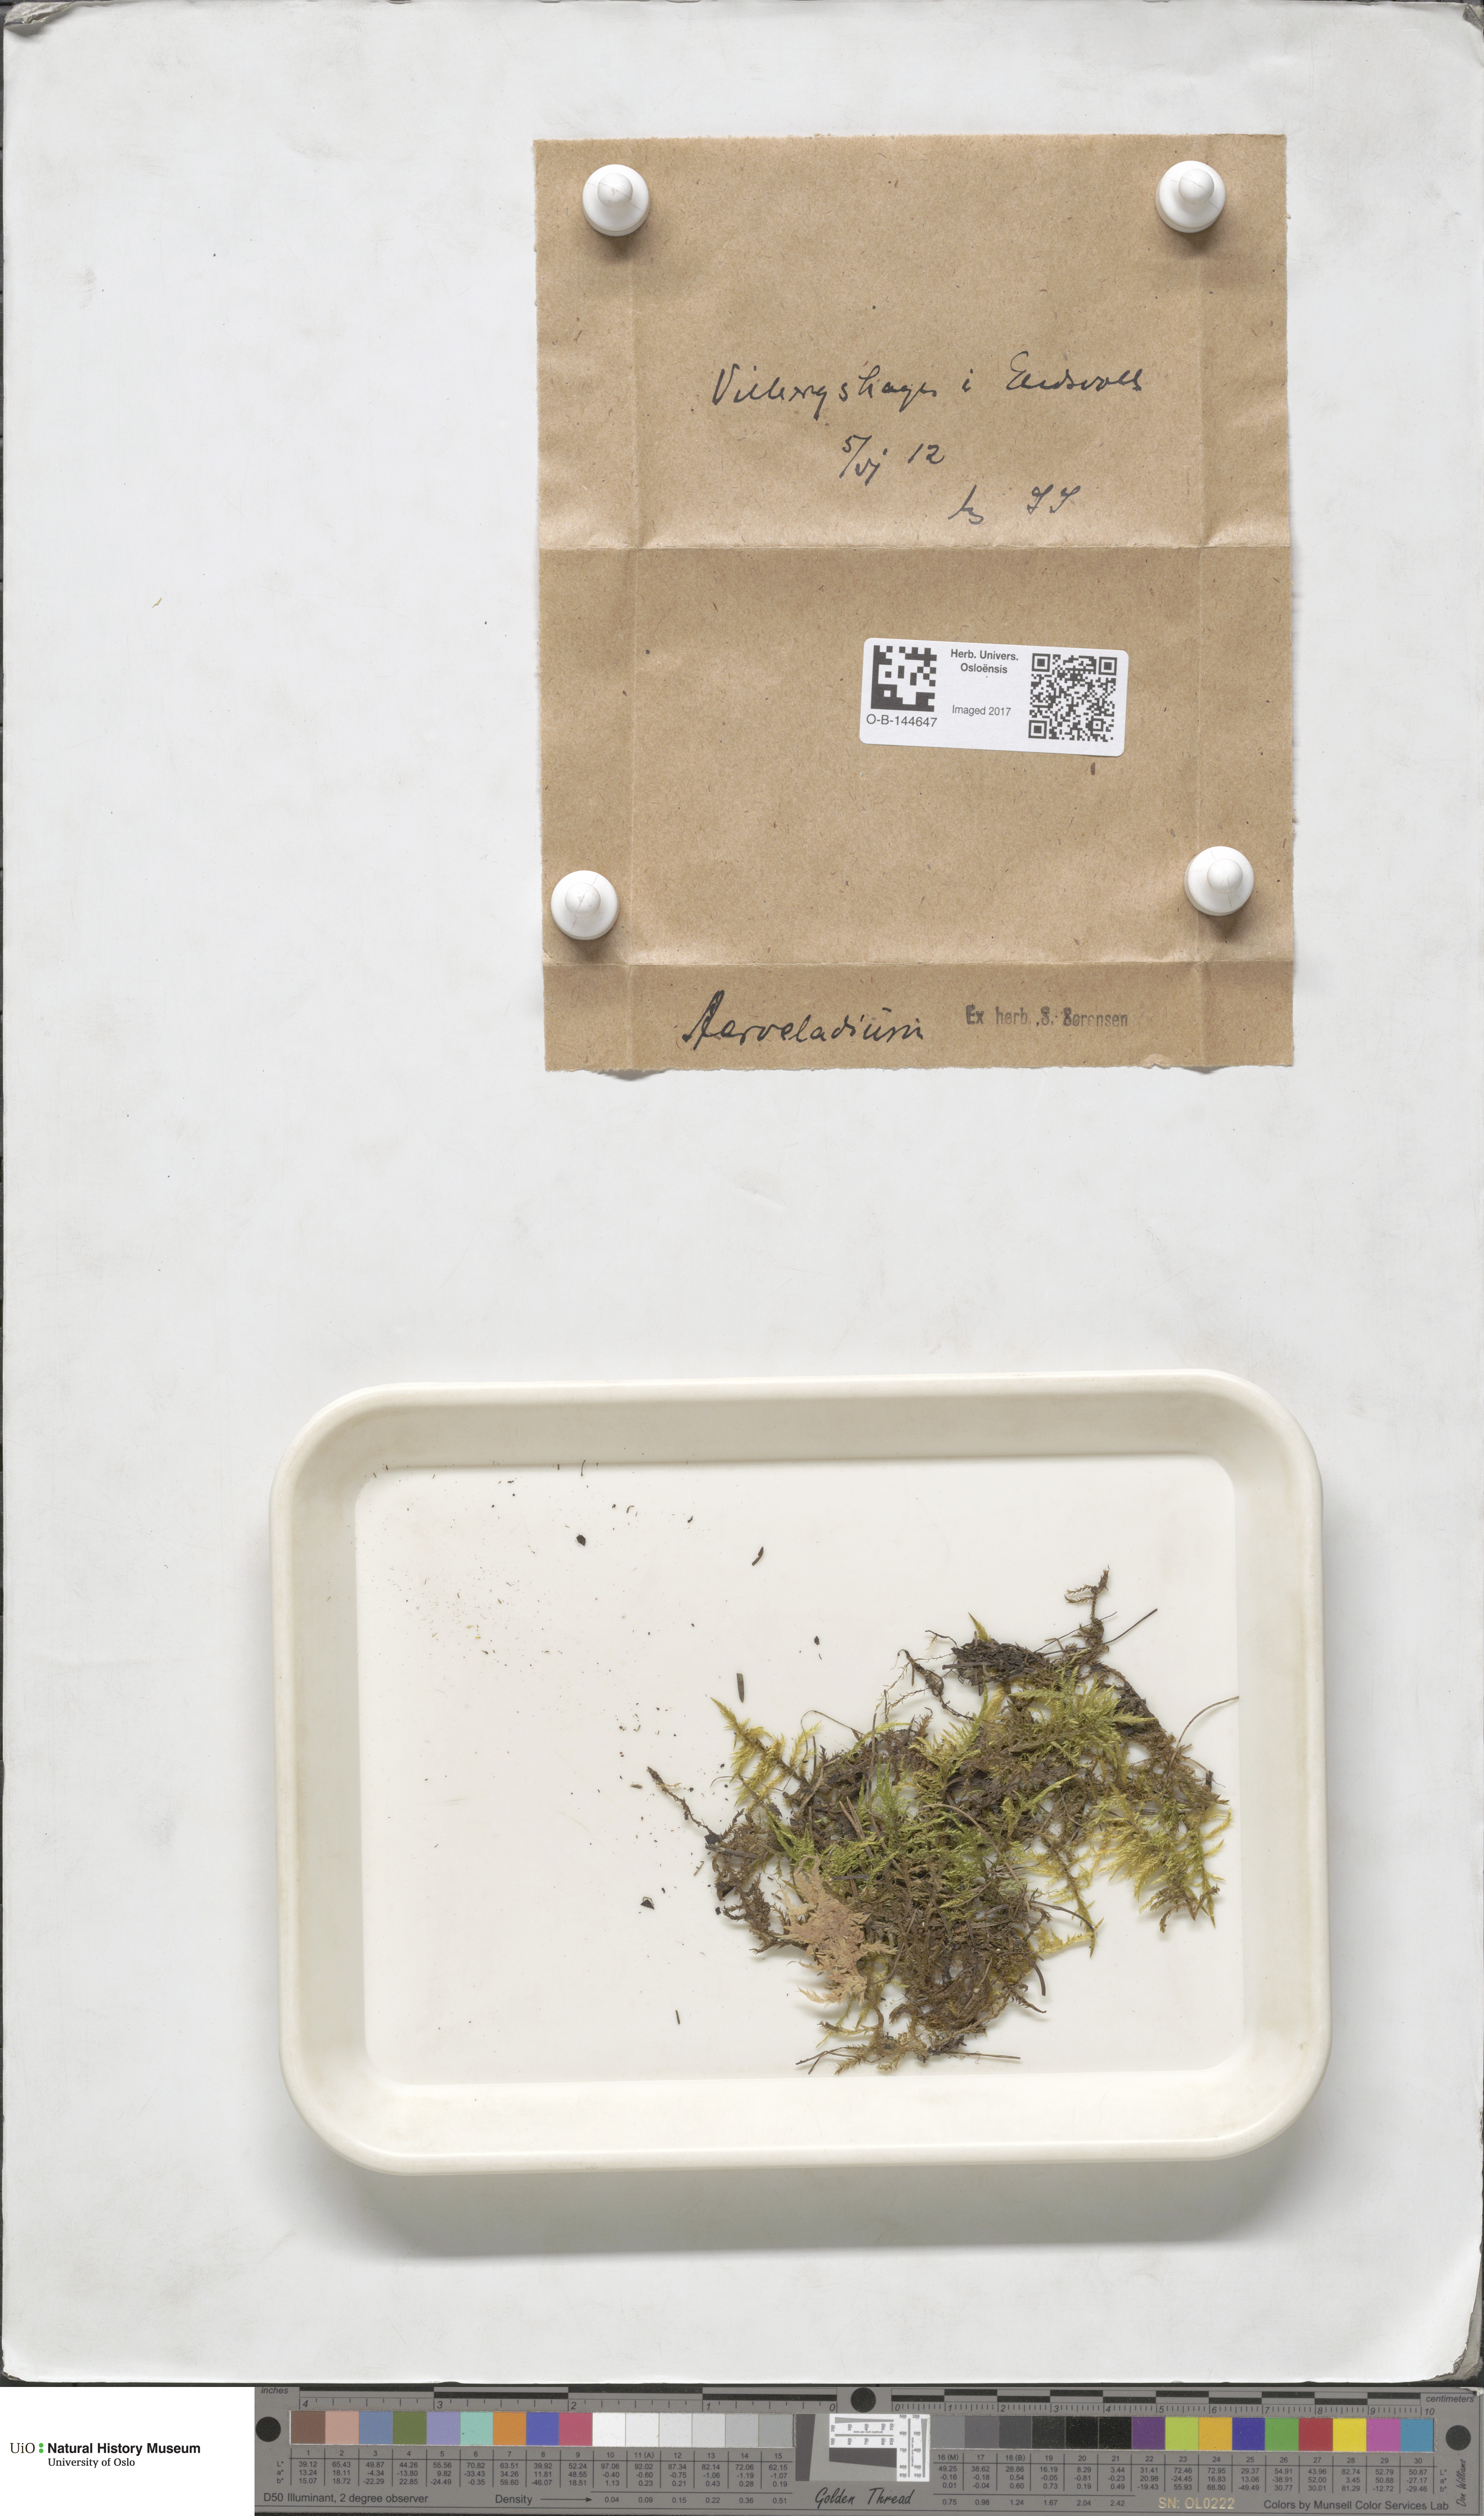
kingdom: Plantae
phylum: Bryophyta
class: Bryopsida
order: Hypnales
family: Pylaisiaceae
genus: Calliergonella
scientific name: Calliergonella cuspidata
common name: Common large wetland moss
